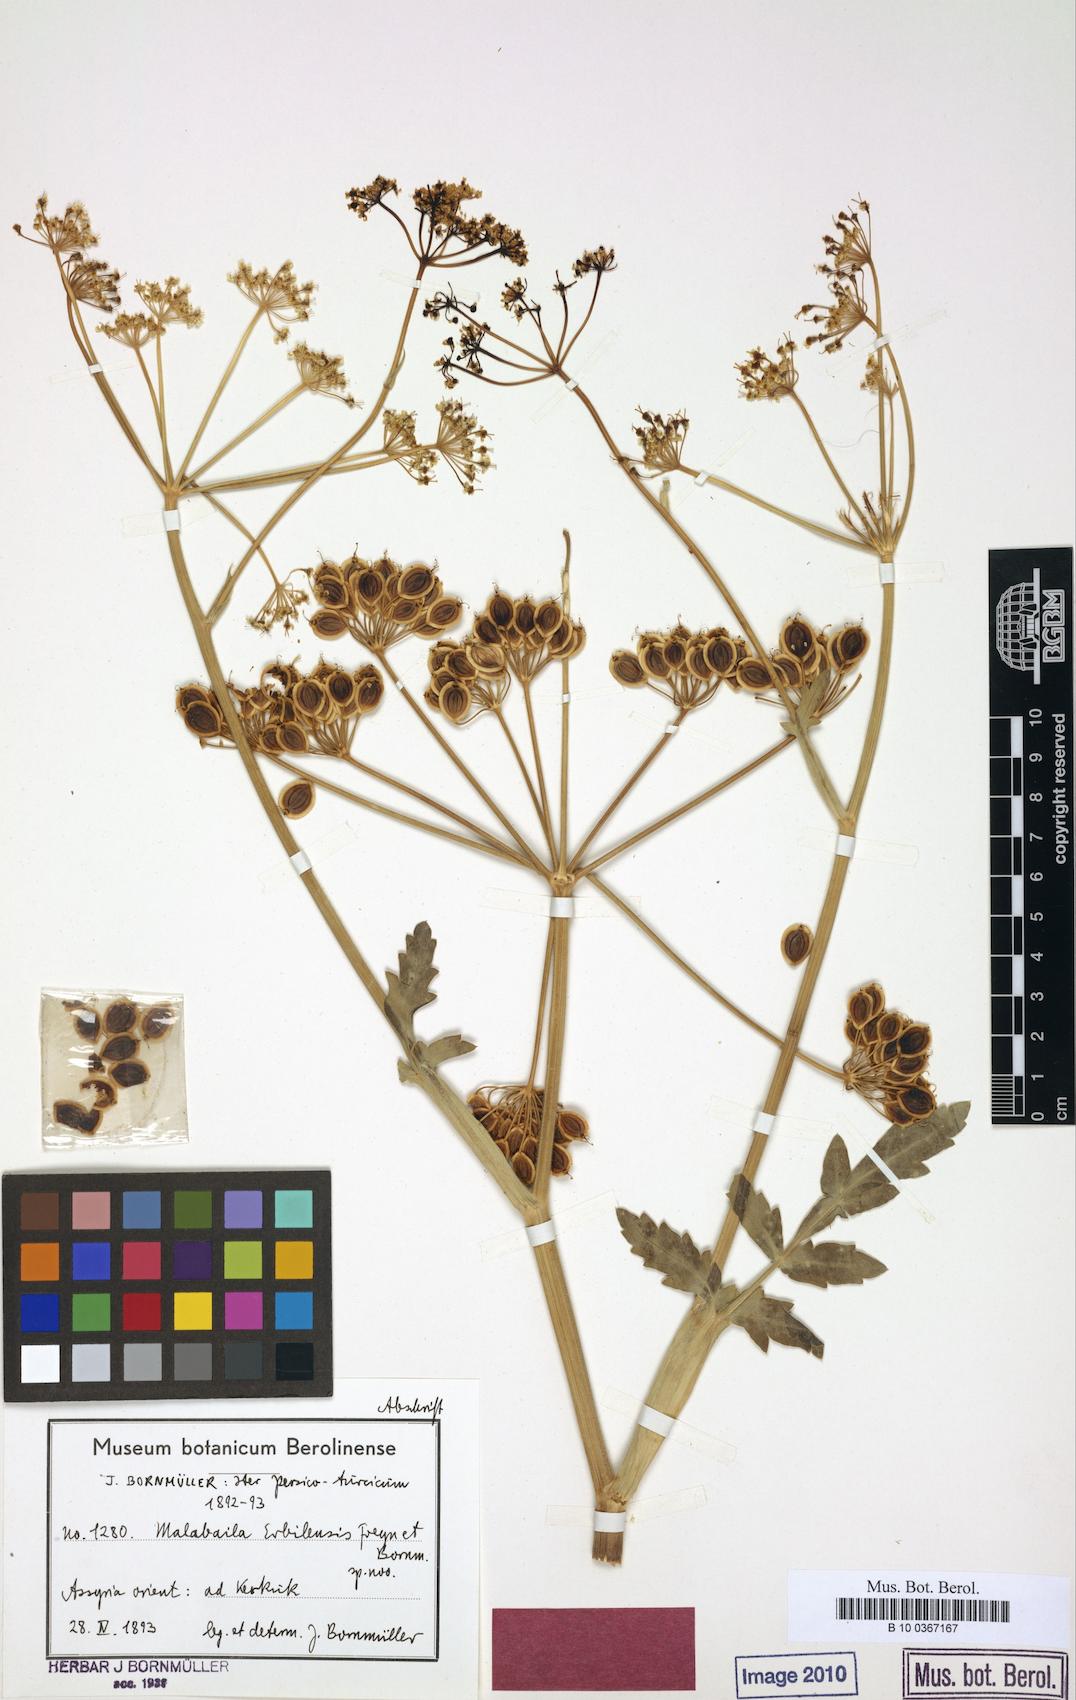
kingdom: Plantae
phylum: Tracheophyta
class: Magnoliopsida
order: Apiales
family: Apiaceae
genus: Leiotulus
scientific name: Leiotulus secacul
